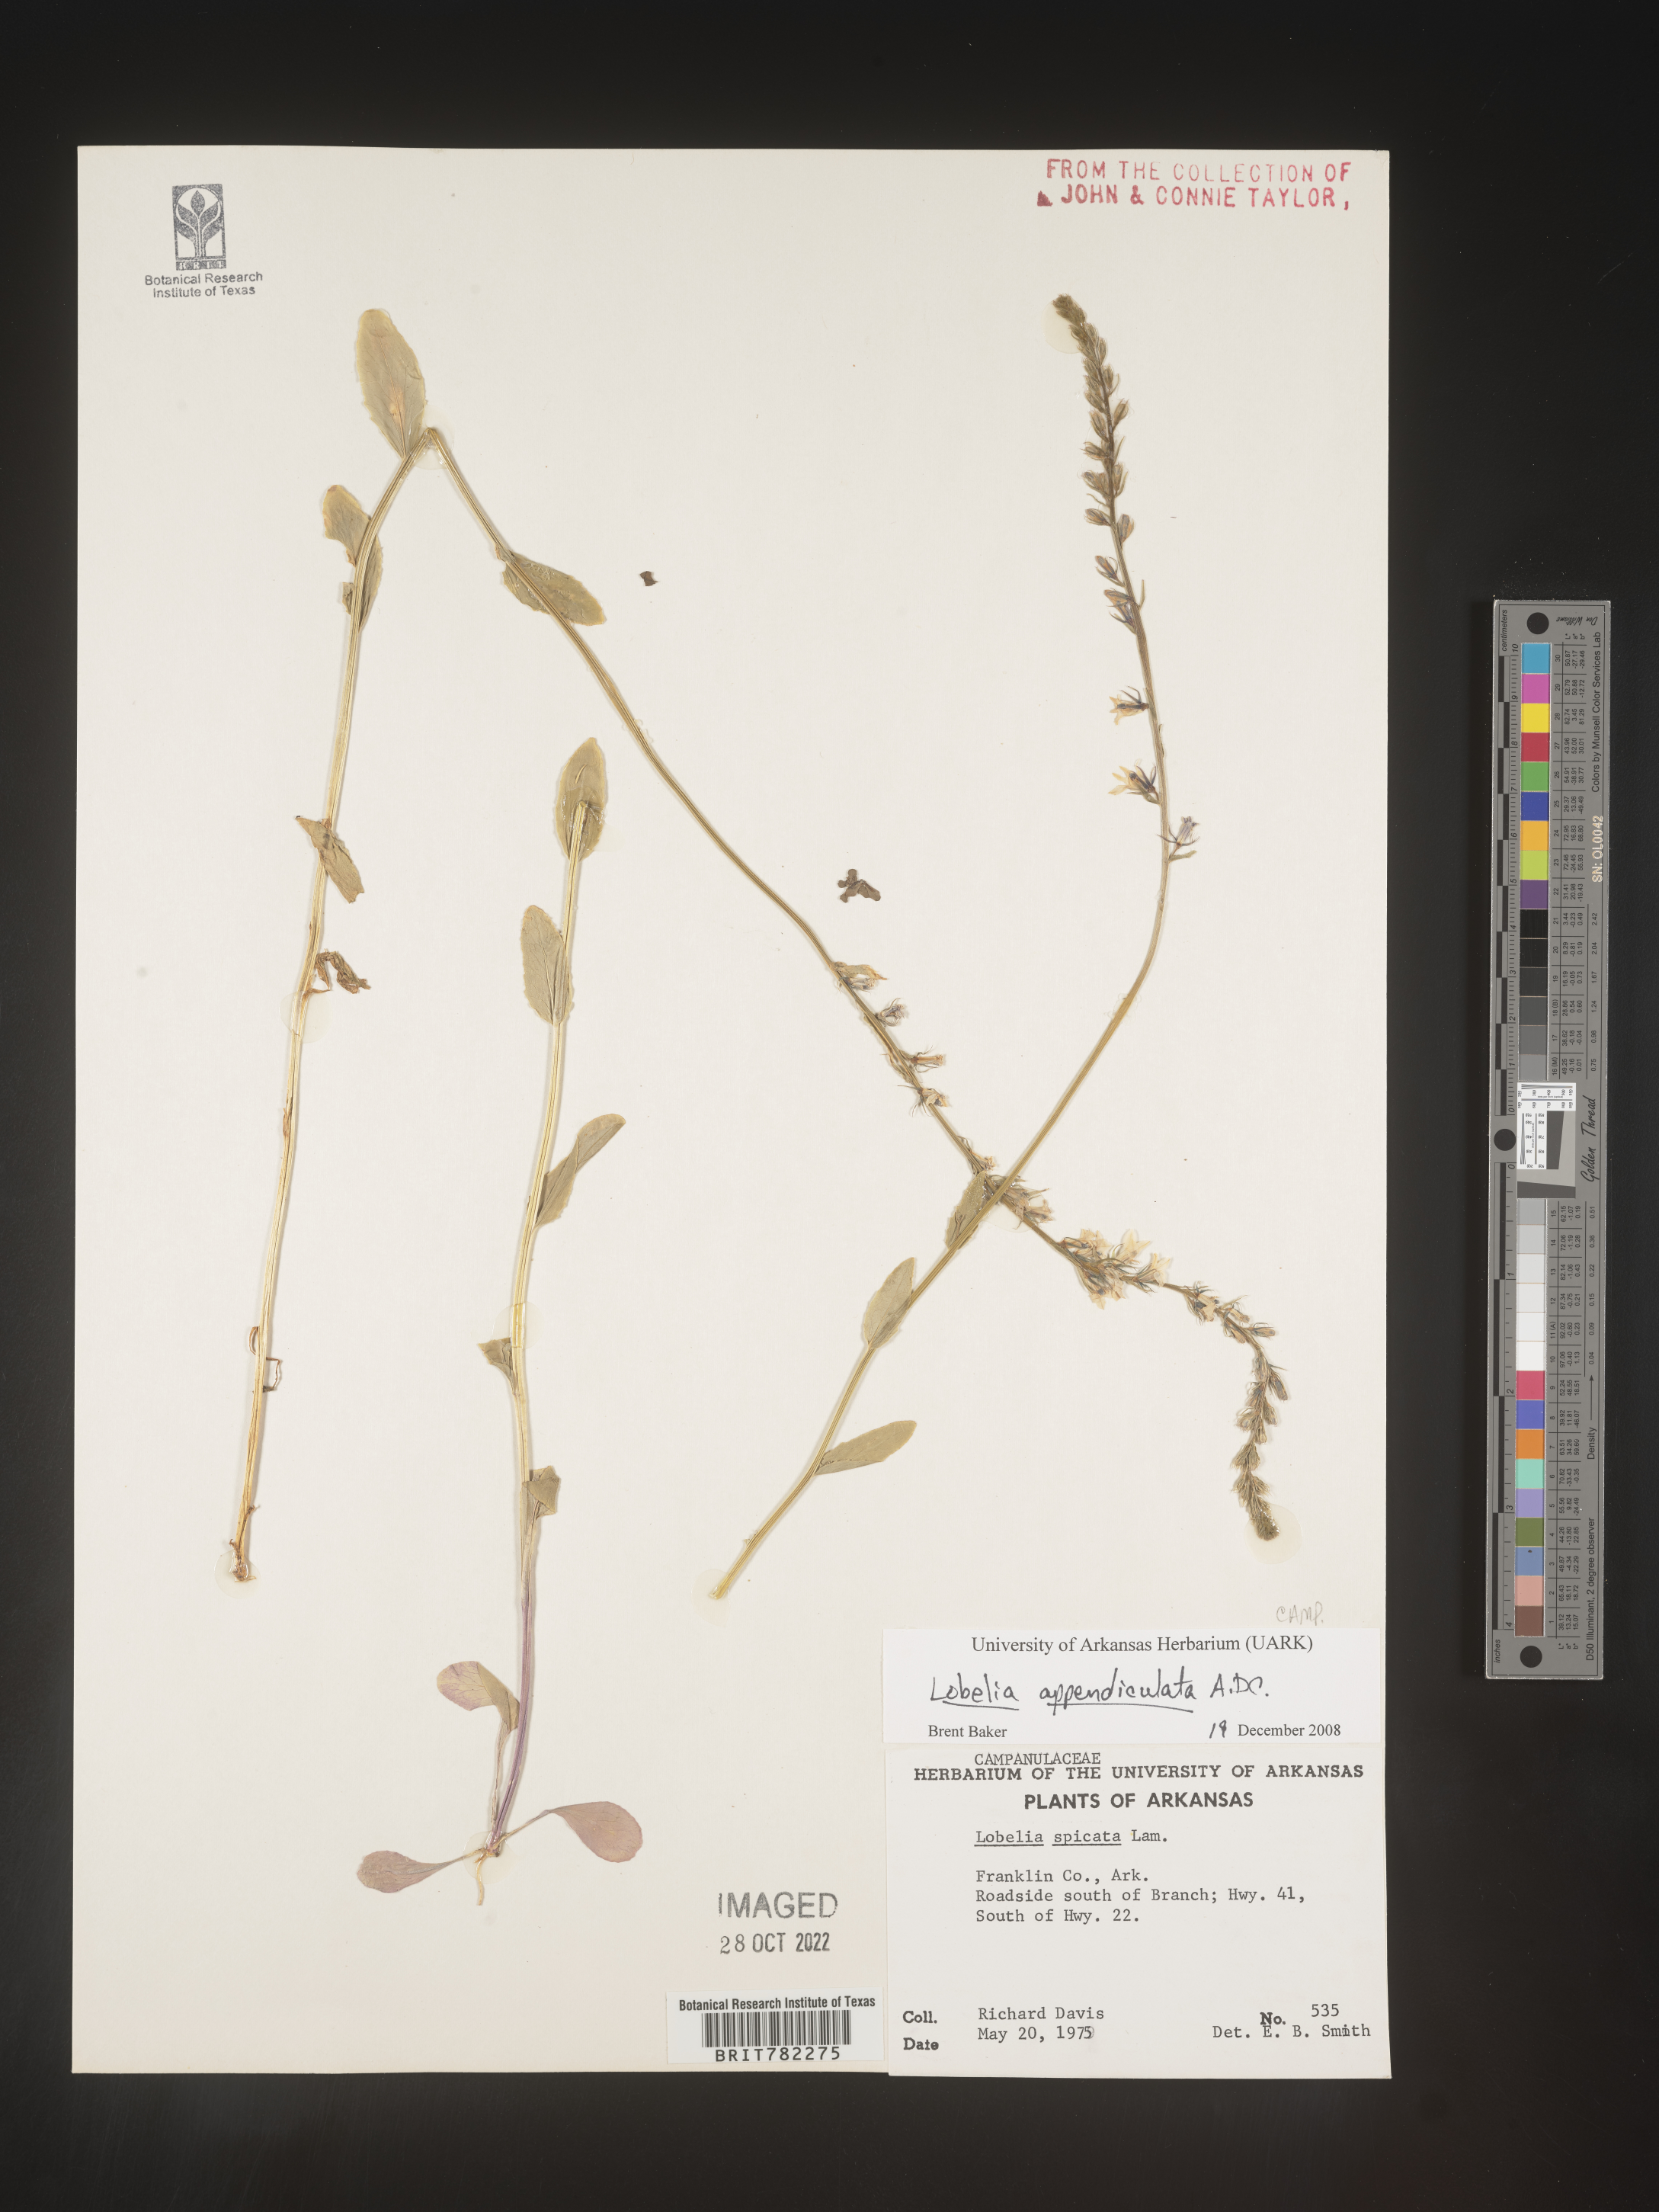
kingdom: Plantae
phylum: Tracheophyta
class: Magnoliopsida
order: Asterales
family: Campanulaceae
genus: Lobelia
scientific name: Lobelia appendiculata
